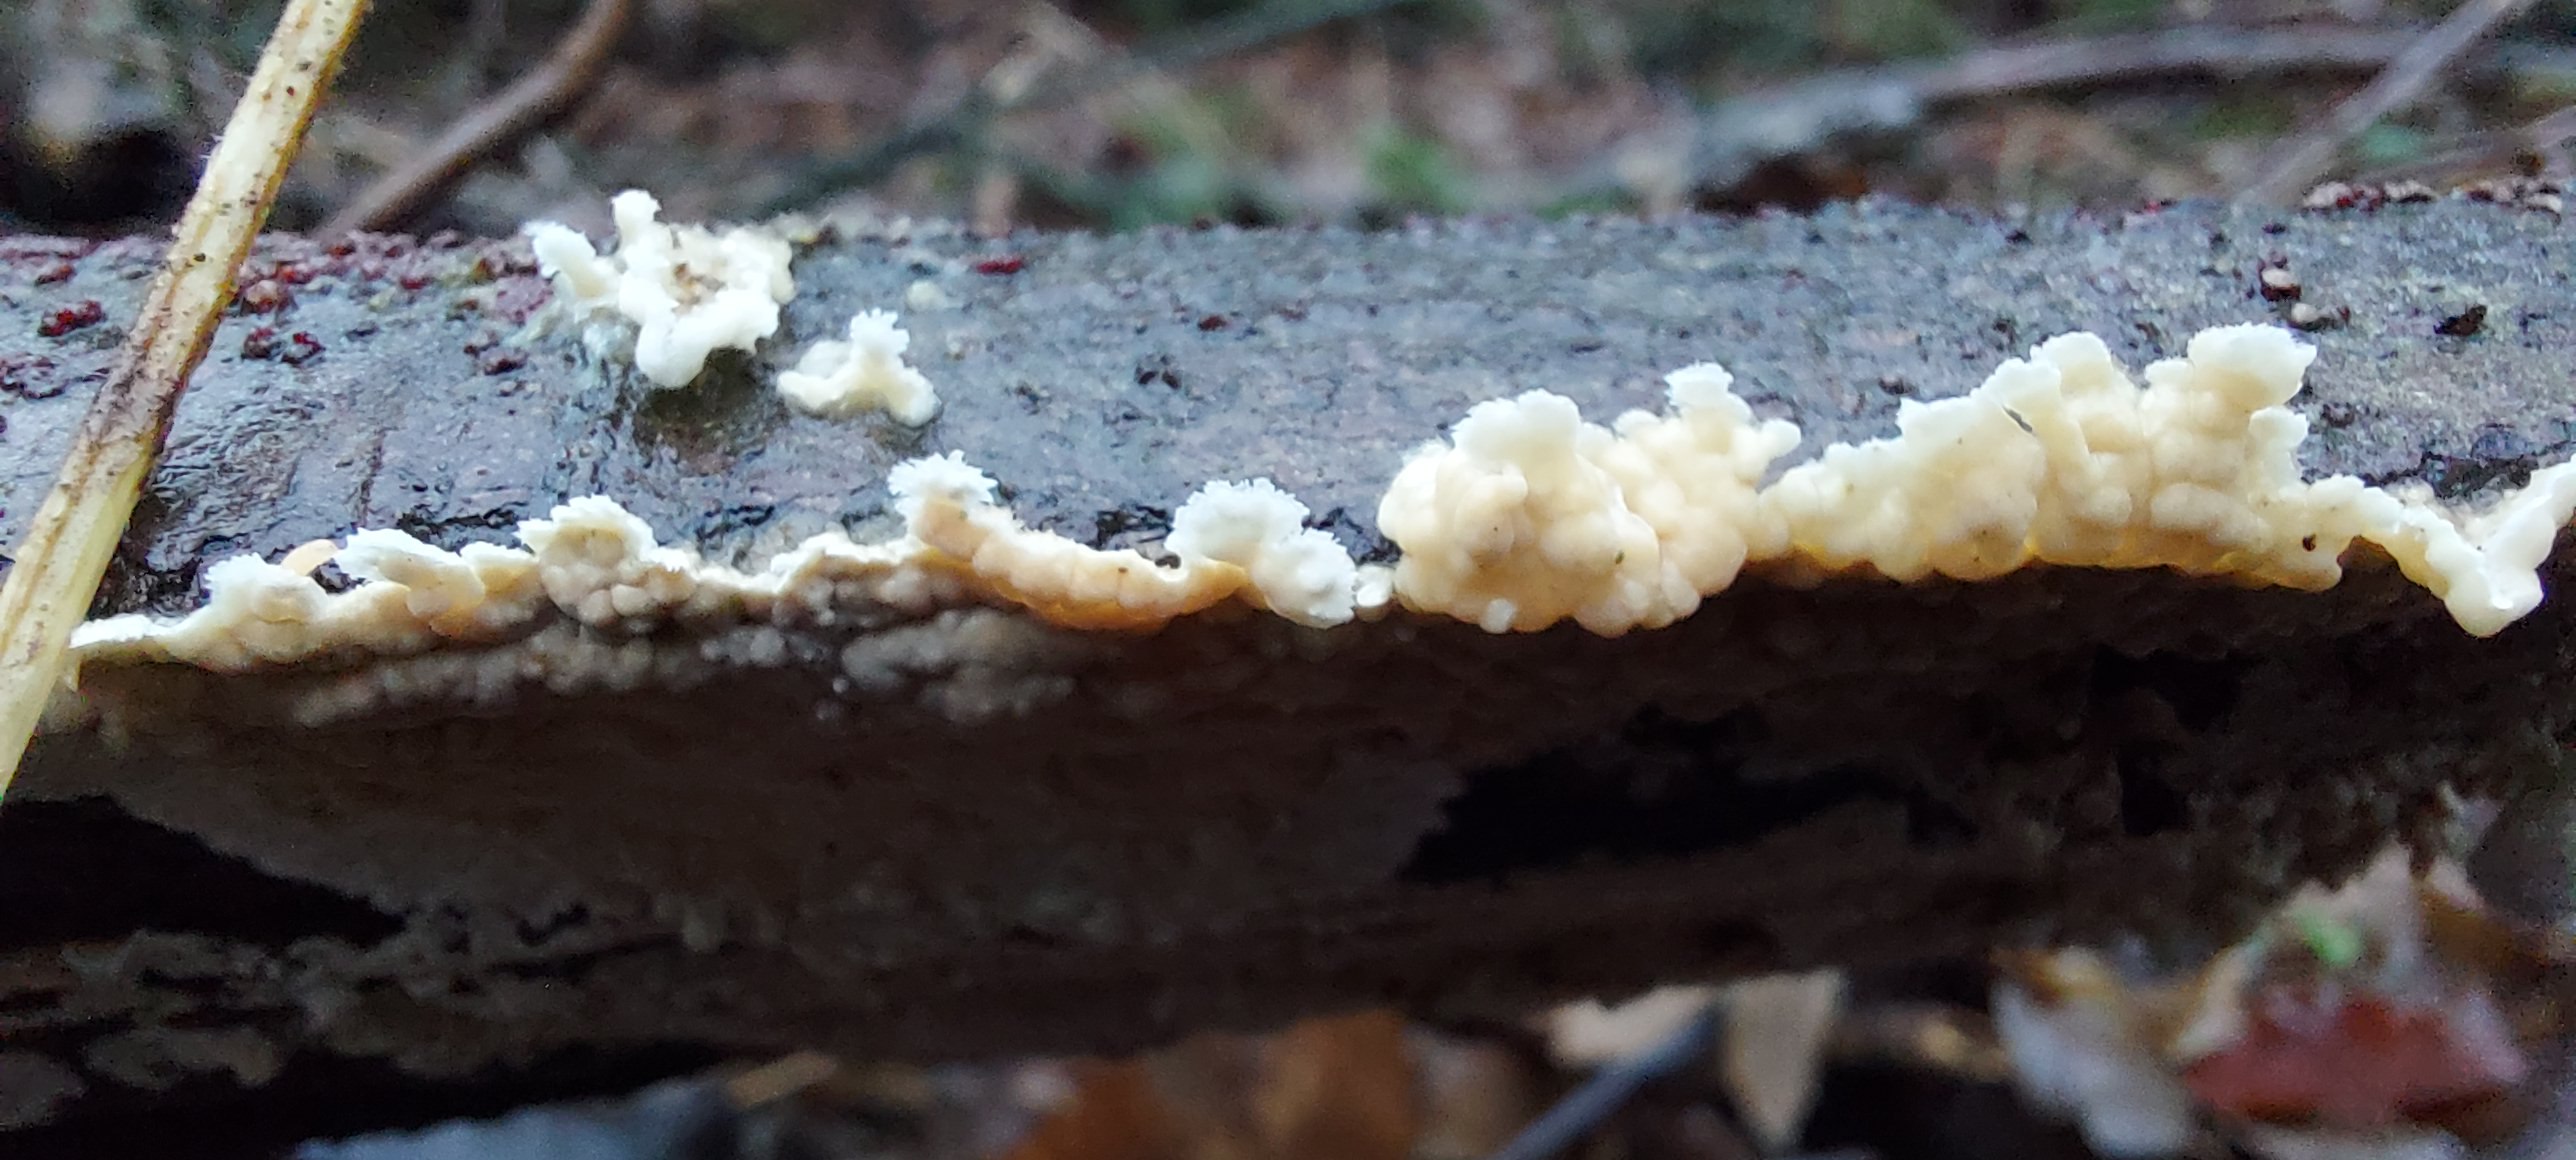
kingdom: Fungi
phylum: Basidiomycota
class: Agaricomycetes
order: Agaricales
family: Physalacriaceae
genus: Cylindrobasidium
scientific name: Cylindrobasidium evolvens
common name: sprækkehinde
